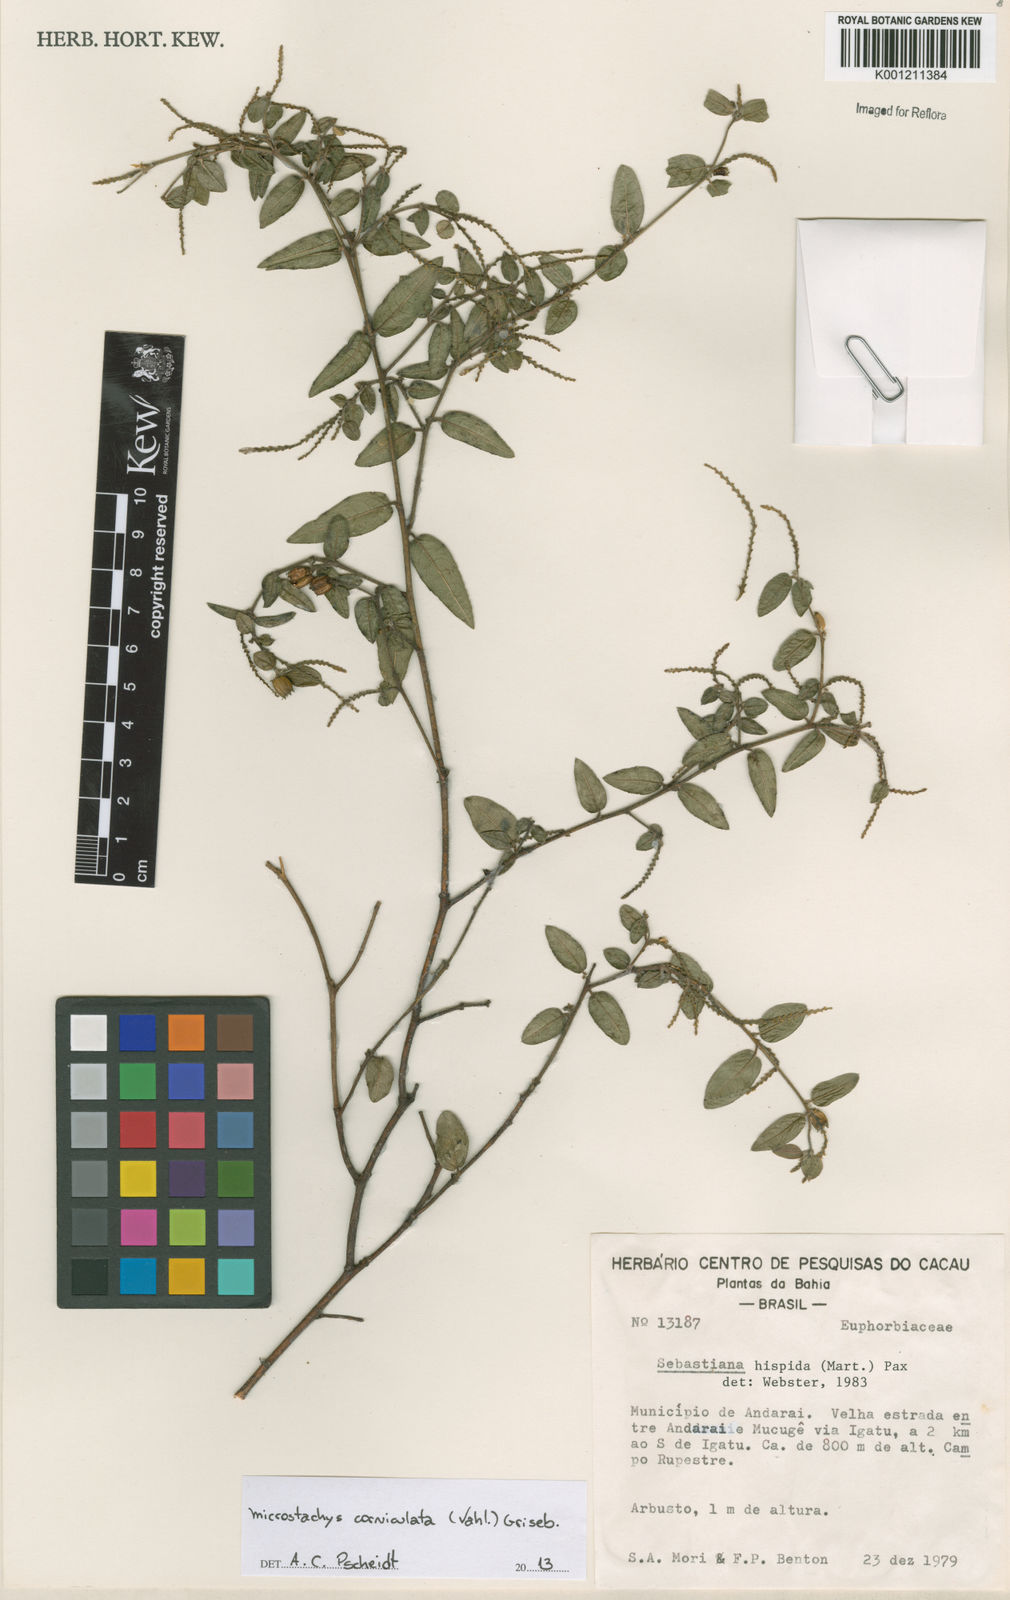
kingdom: Plantae
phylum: Tracheophyta
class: Magnoliopsida
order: Malpighiales
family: Euphorbiaceae
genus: Microstachys
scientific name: Microstachys corniculata
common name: Hato tejas
